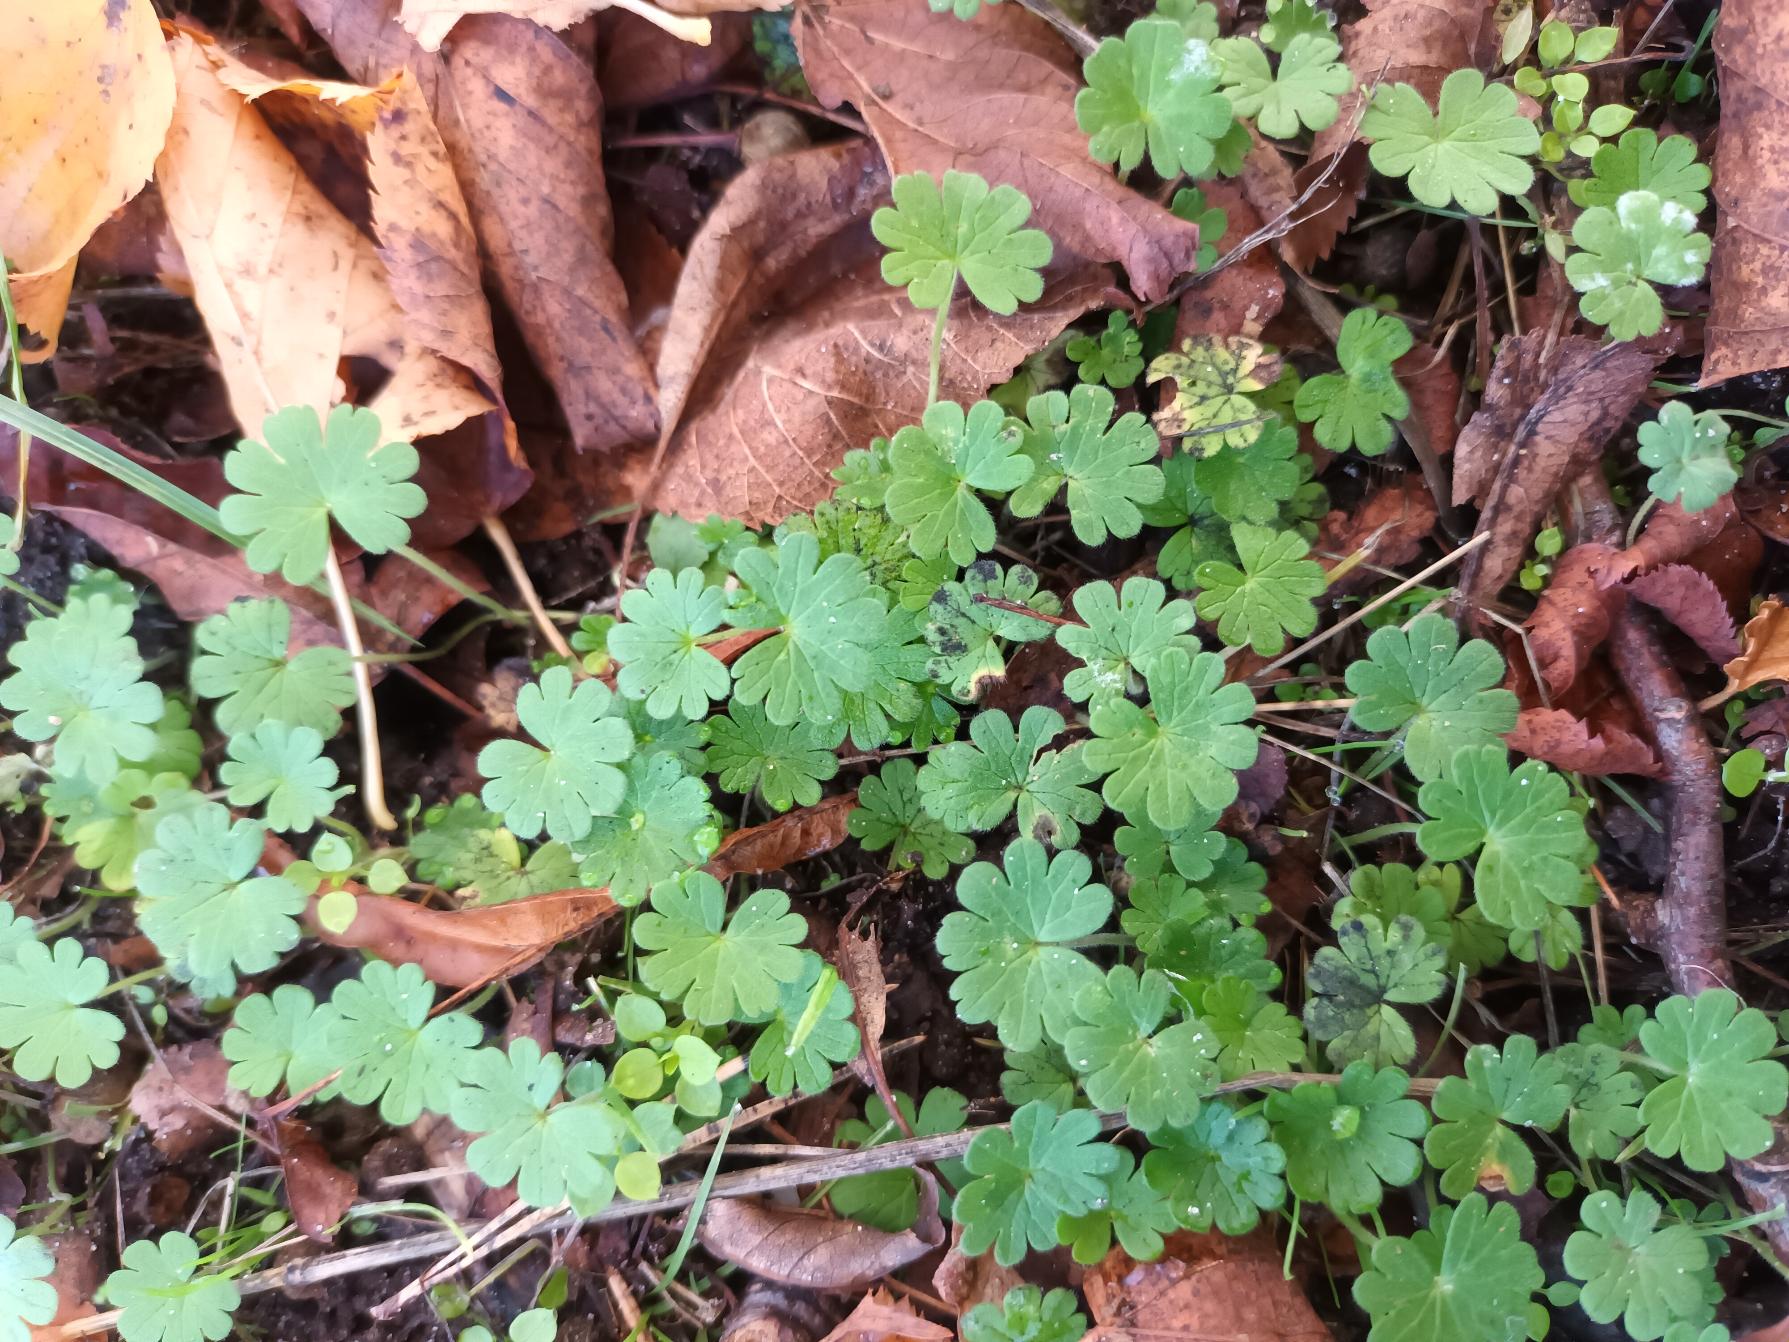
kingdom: Plantae
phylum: Tracheophyta
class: Magnoliopsida
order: Geraniales
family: Geraniaceae
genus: Geranium
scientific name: Geranium pusillum
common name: Liden storkenæb
